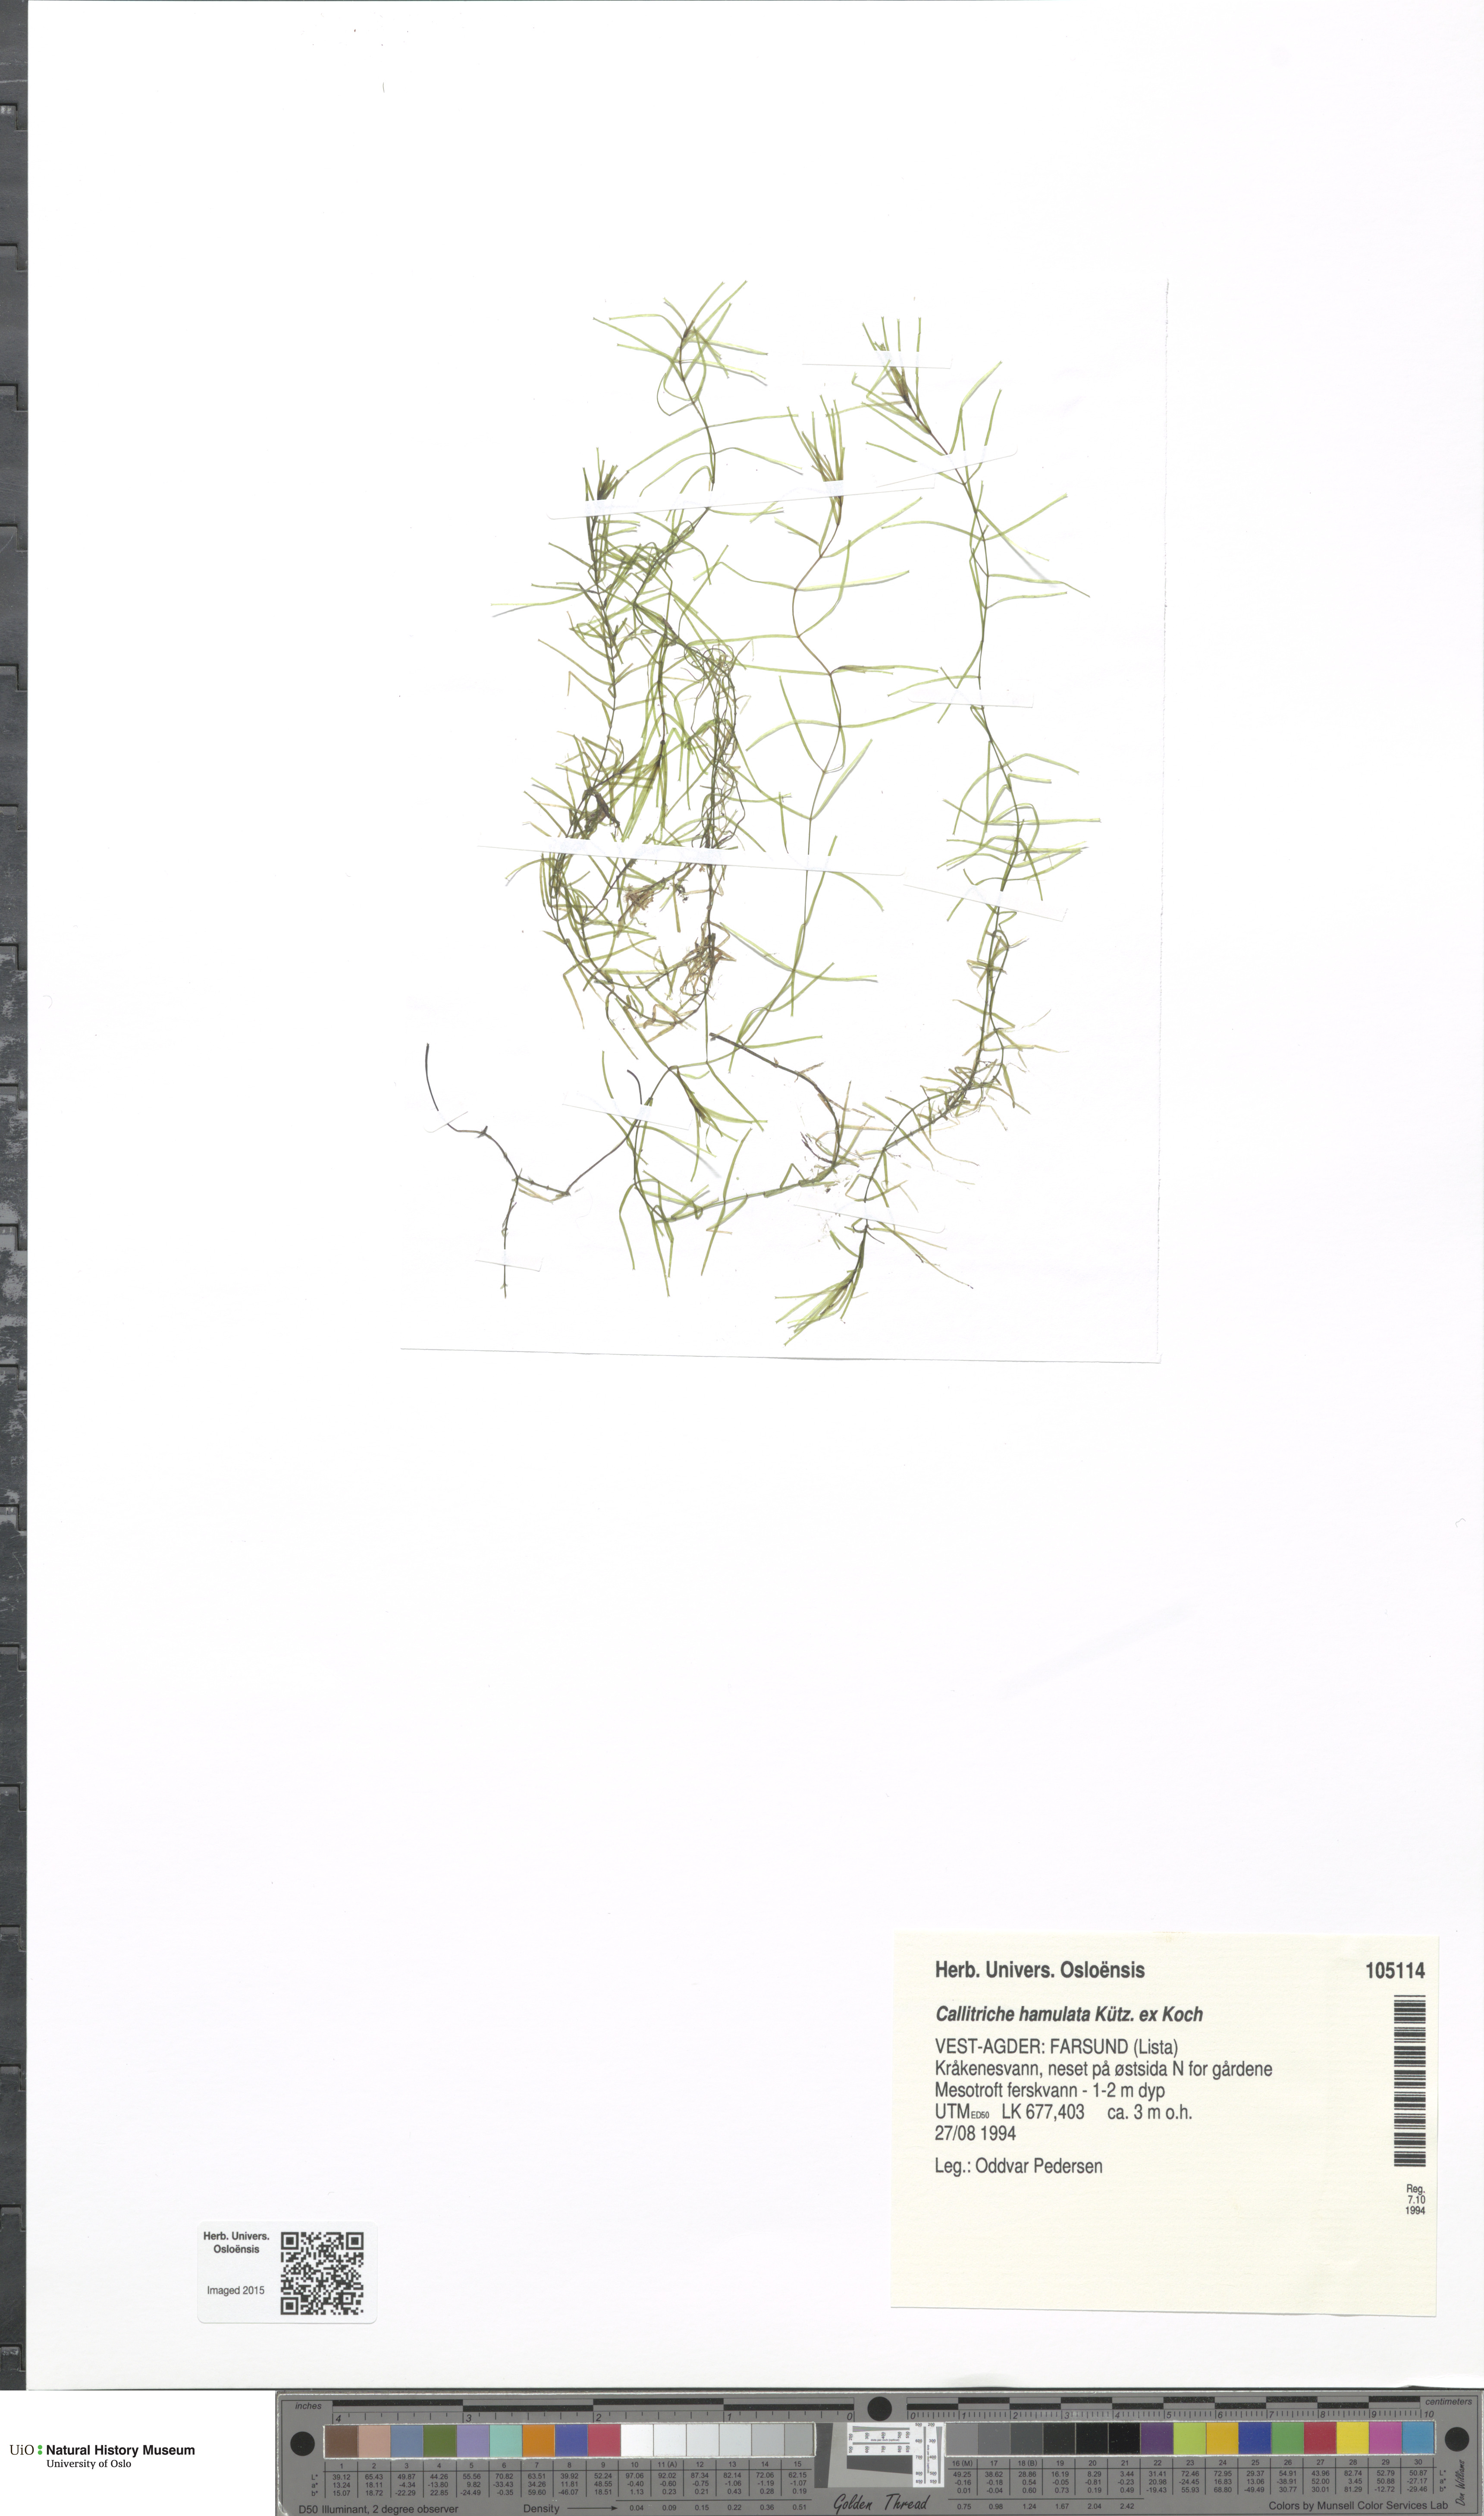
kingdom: Plantae
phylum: Tracheophyta
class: Magnoliopsida
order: Lamiales
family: Plantaginaceae
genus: Callitriche
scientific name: Callitriche hamulata
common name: Intermediate water-starwort
